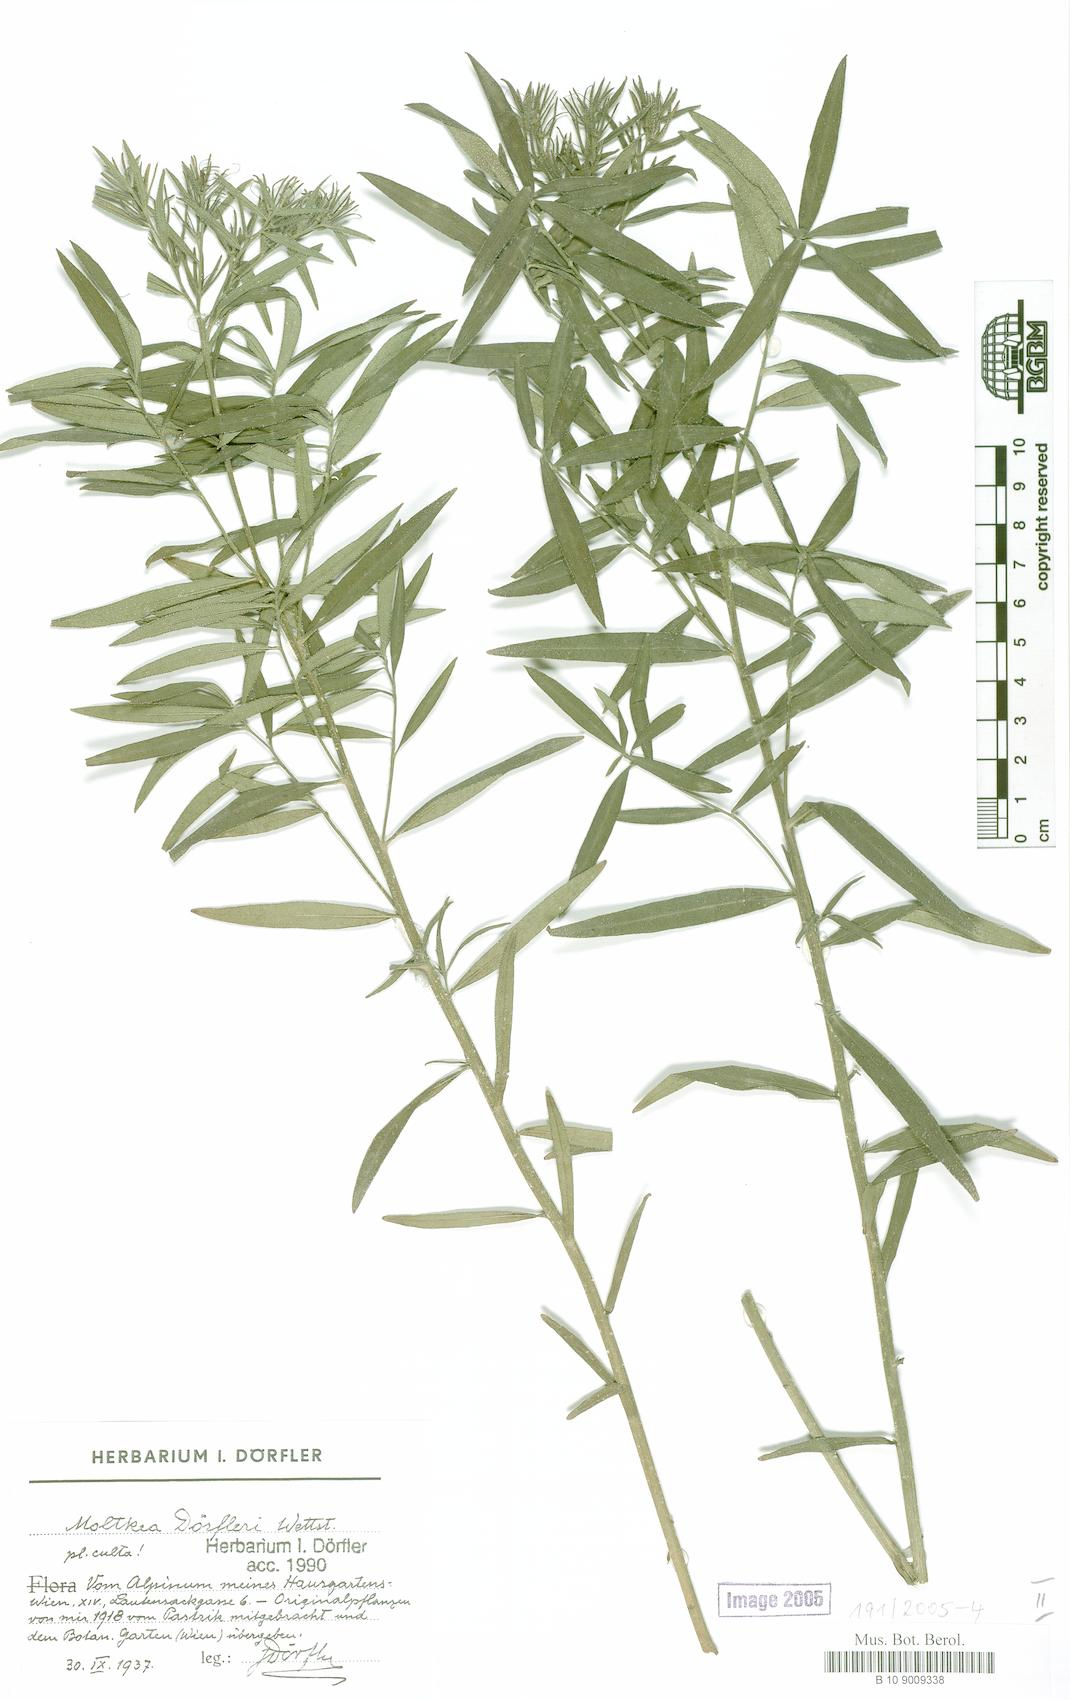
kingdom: Plantae
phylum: Tracheophyta
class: Magnoliopsida
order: Boraginales
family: Boraginaceae
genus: Paramoltkia
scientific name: Paramoltkia doerfleri
